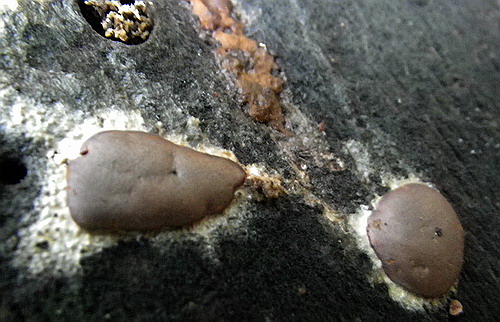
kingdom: Protozoa
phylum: Mycetozoa
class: Myxomycetes
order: Trichiales
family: Dictydiaethaliaceae
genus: Dictydiaethalium
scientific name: Dictydiaethalium plumbeum
